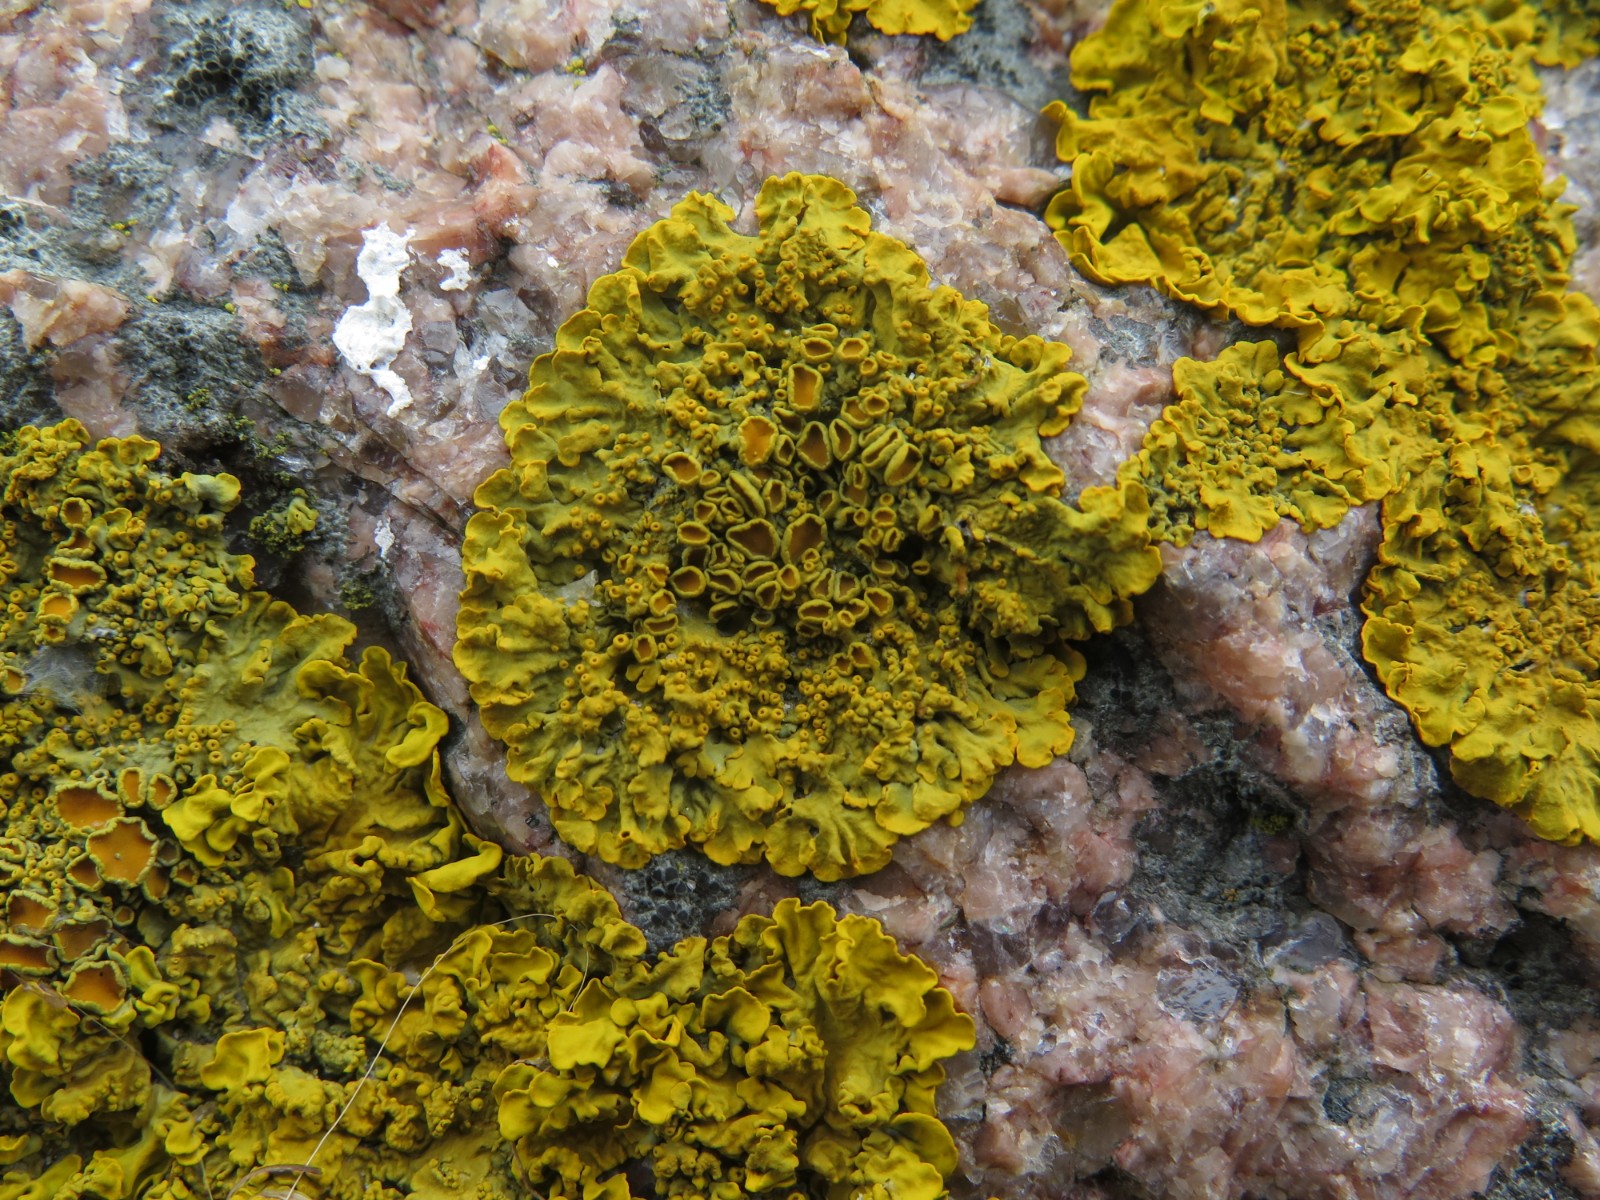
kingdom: Fungi
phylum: Ascomycota
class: Lecanoromycetes
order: Teloschistales
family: Teloschistaceae
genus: Xanthoria
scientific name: Xanthoria parietina
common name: almindelig væggelav
